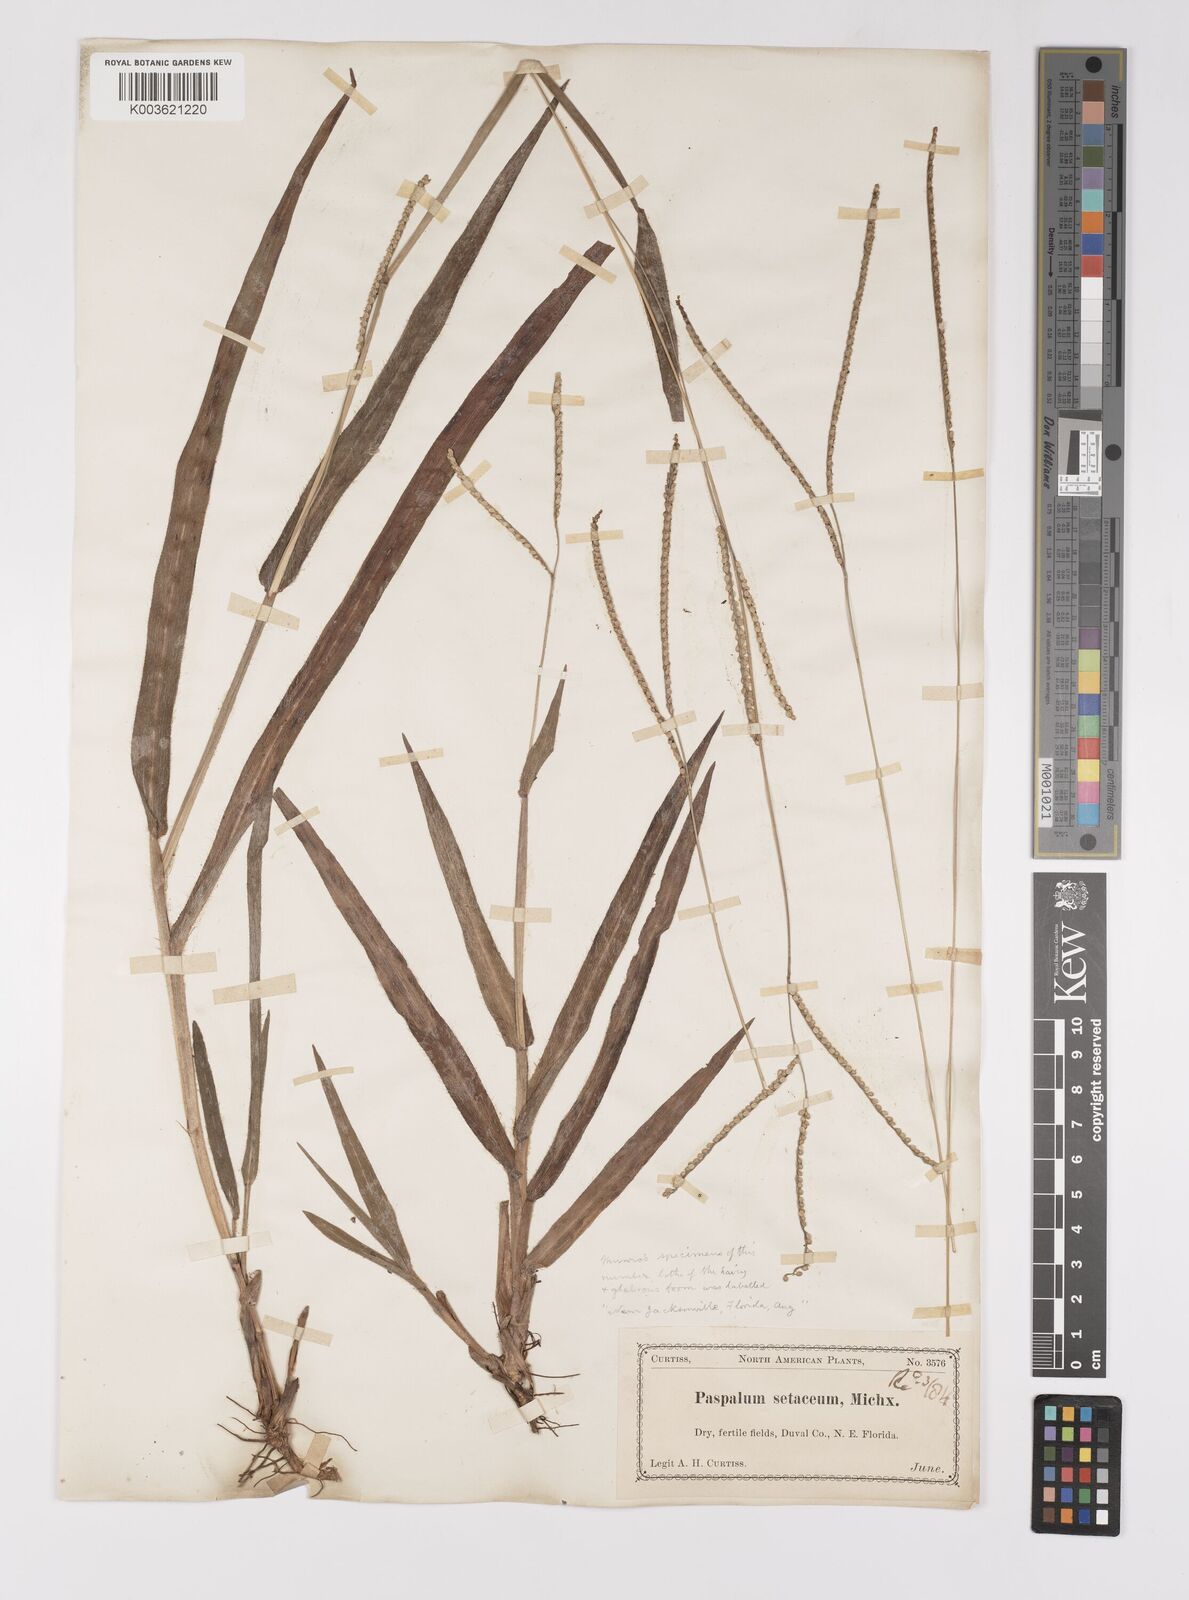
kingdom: Plantae
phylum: Tracheophyta
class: Liliopsida
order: Poales
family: Poaceae
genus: Paspalum
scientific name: Paspalum setaceum
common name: Slender paspalum
